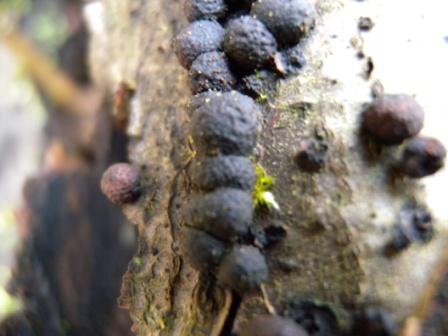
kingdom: Fungi
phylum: Ascomycota
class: Sordariomycetes
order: Xylariales
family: Hypoxylaceae
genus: Hypoxylon
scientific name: Hypoxylon fragiforme
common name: kuljordbær
